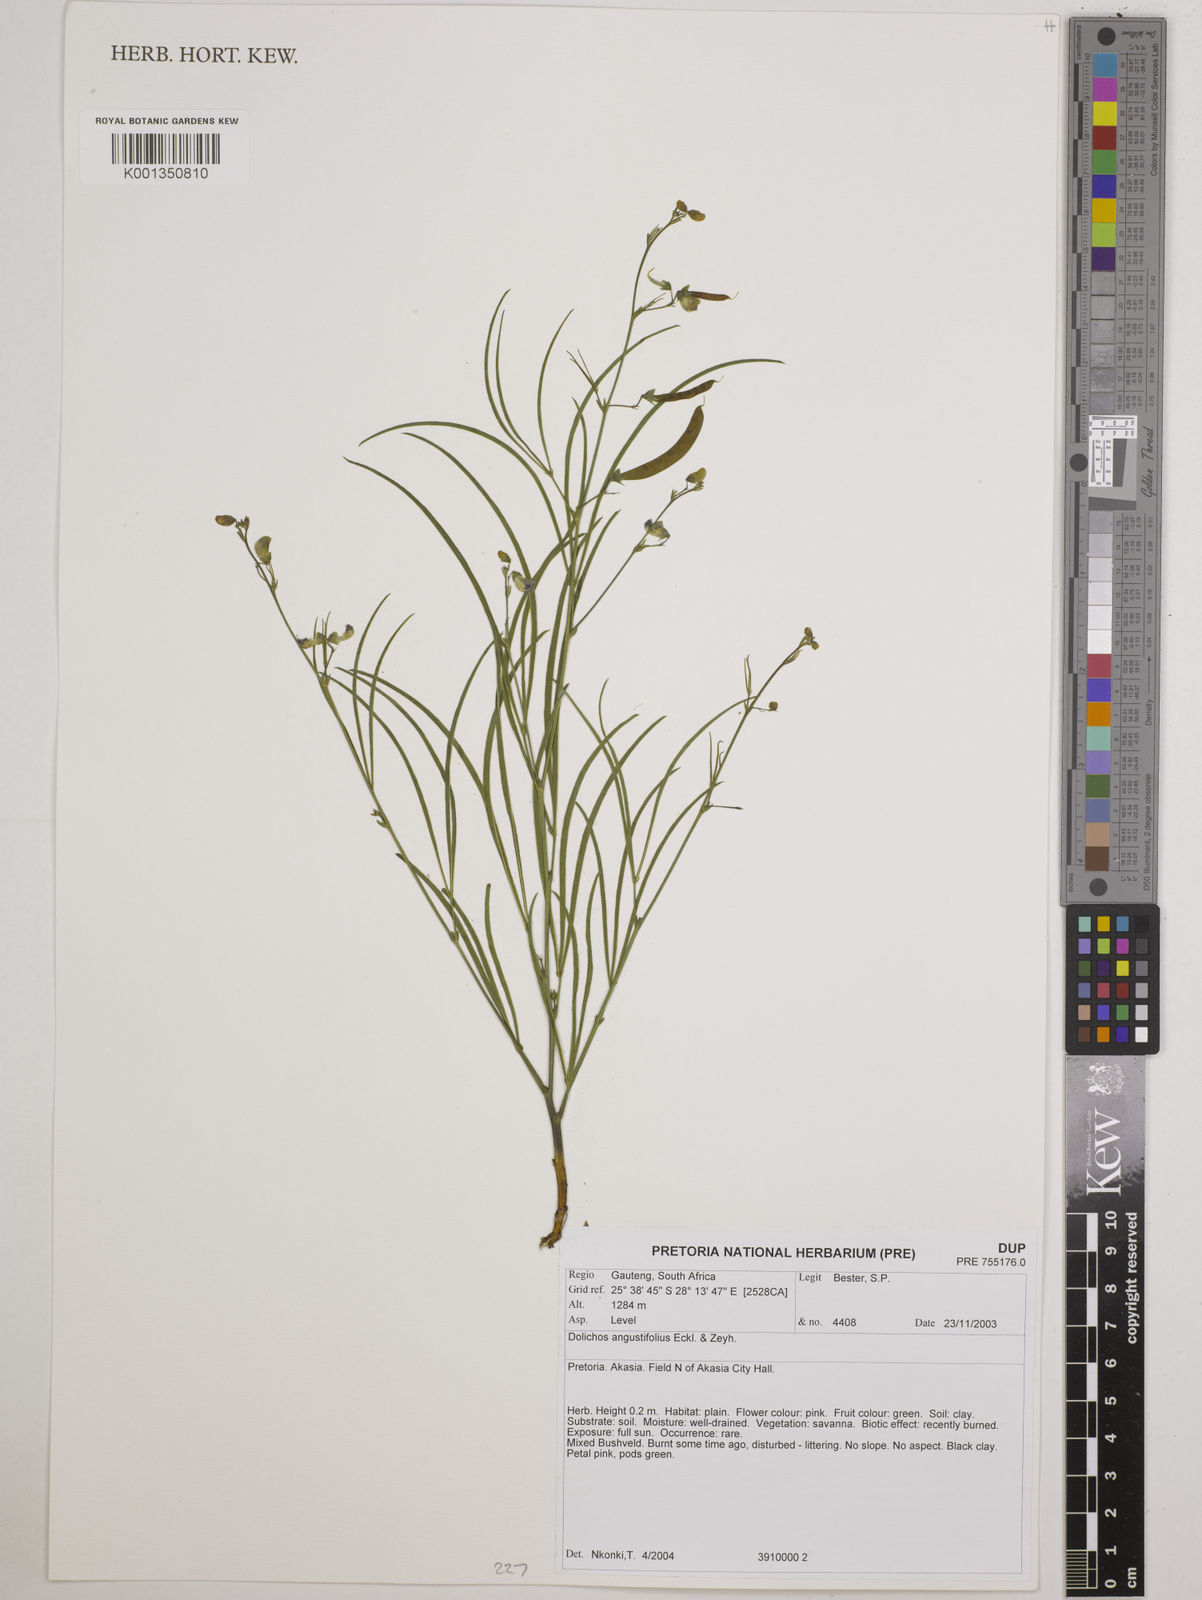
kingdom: Plantae
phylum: Tracheophyta
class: Magnoliopsida
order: Fabales
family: Fabaceae
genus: Dolichos
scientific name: Dolichos
